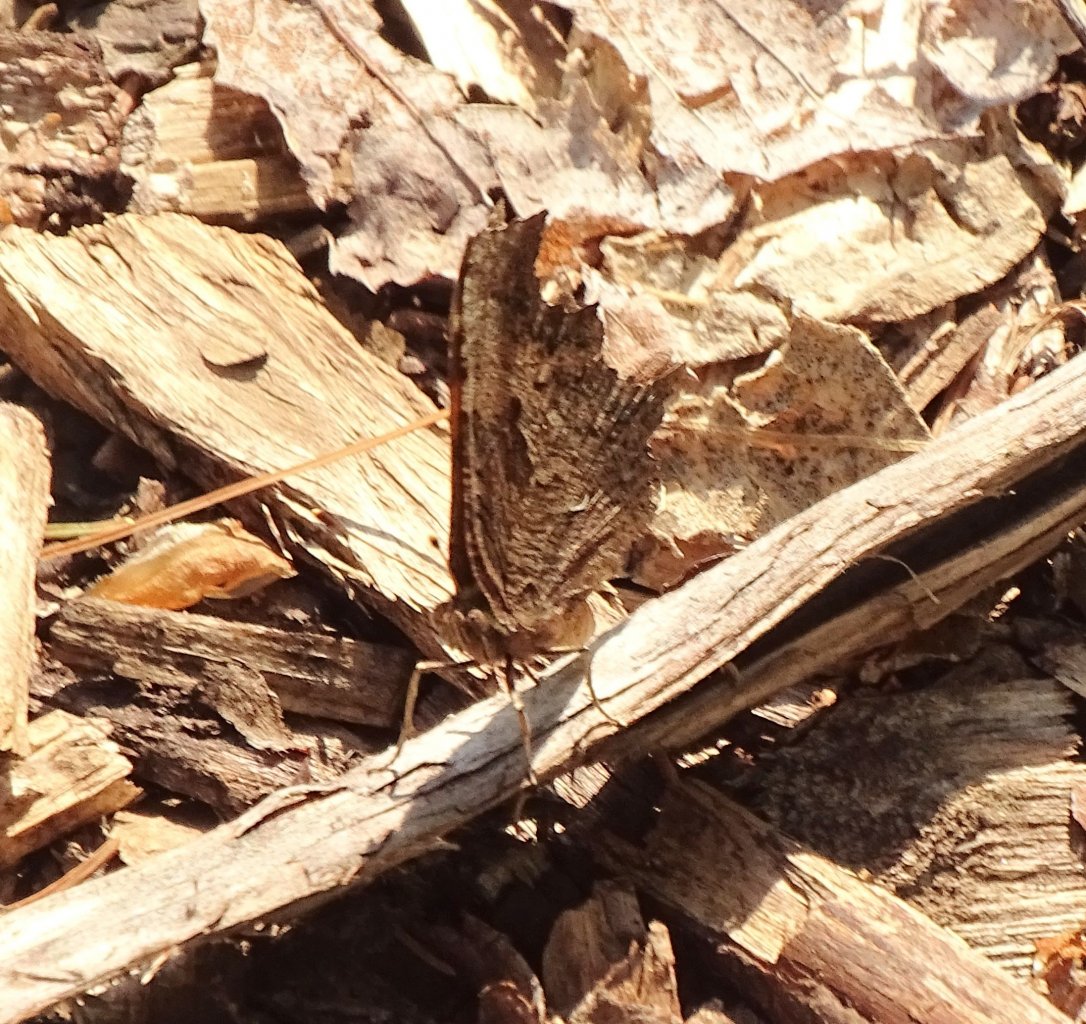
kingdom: Animalia
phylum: Arthropoda
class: Insecta
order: Lepidoptera
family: Nymphalidae
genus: Polygonia
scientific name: Polygonia progne
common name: Gray Comma
